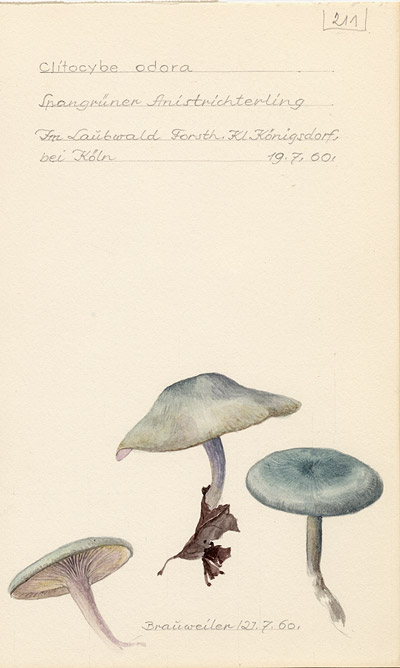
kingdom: Fungi
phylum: Basidiomycota
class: Agaricomycetes
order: Agaricales
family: Tricholomataceae
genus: Clitocybe
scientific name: Clitocybe odora
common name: Aniseed funnel
